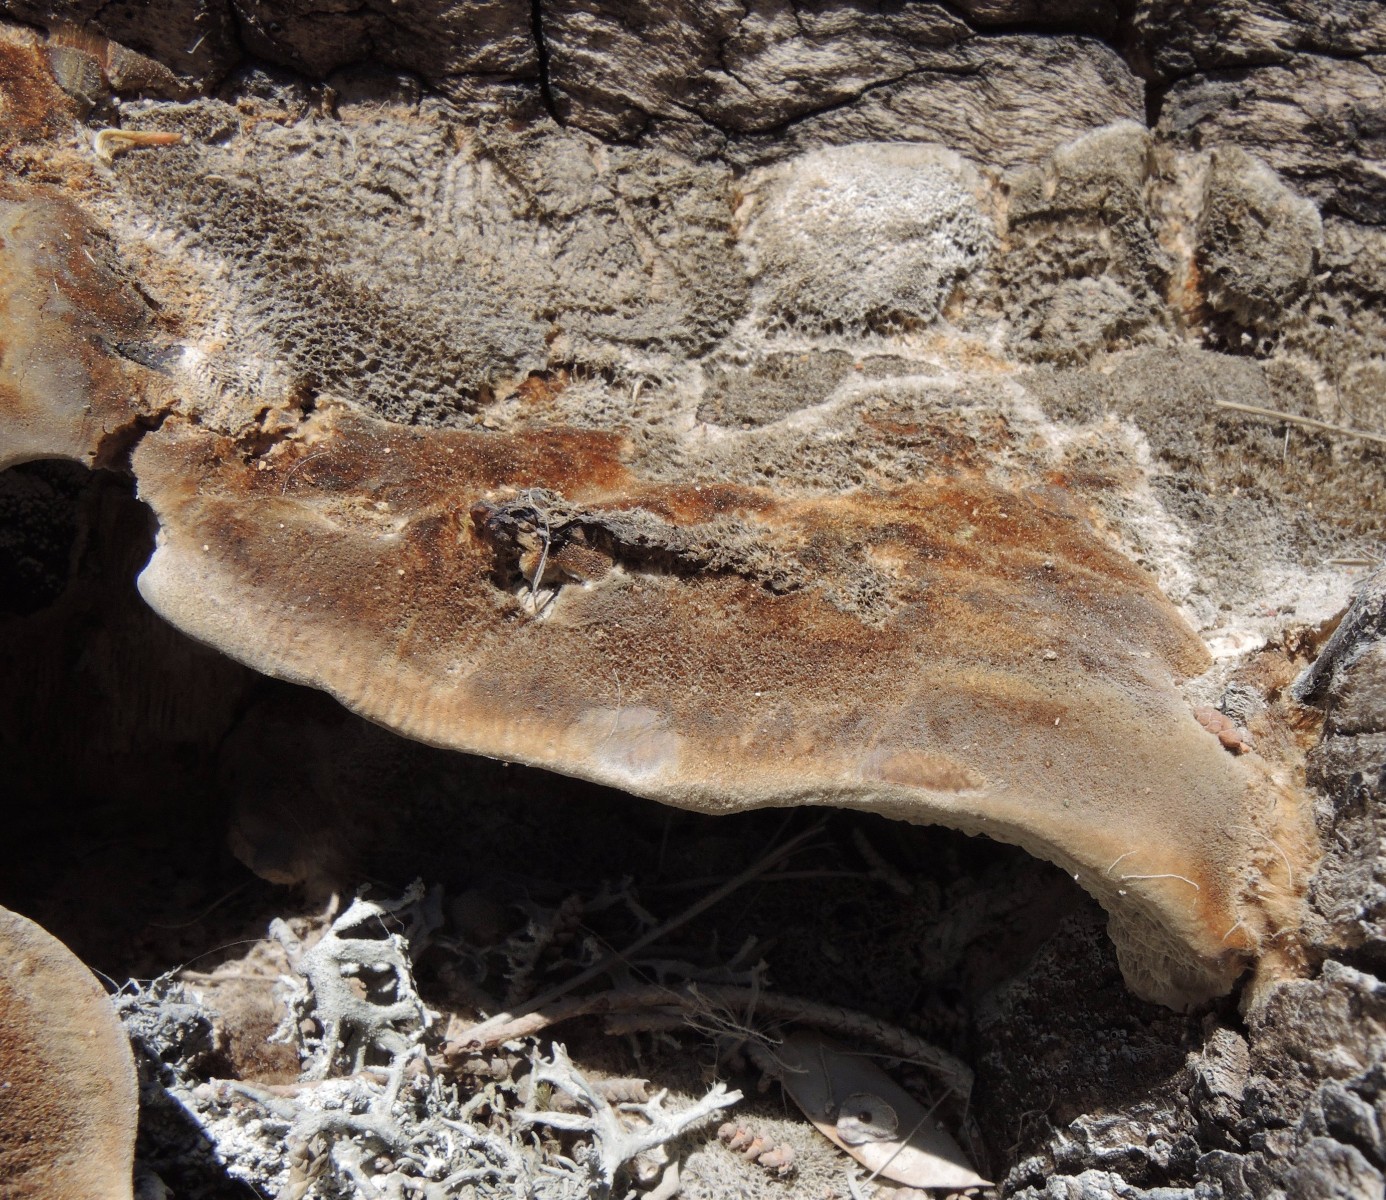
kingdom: Fungi
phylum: Basidiomycota
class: Agaricomycetes
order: Polyporales
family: Polyporaceae
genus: Coriolopsis
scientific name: Coriolopsis gallica
